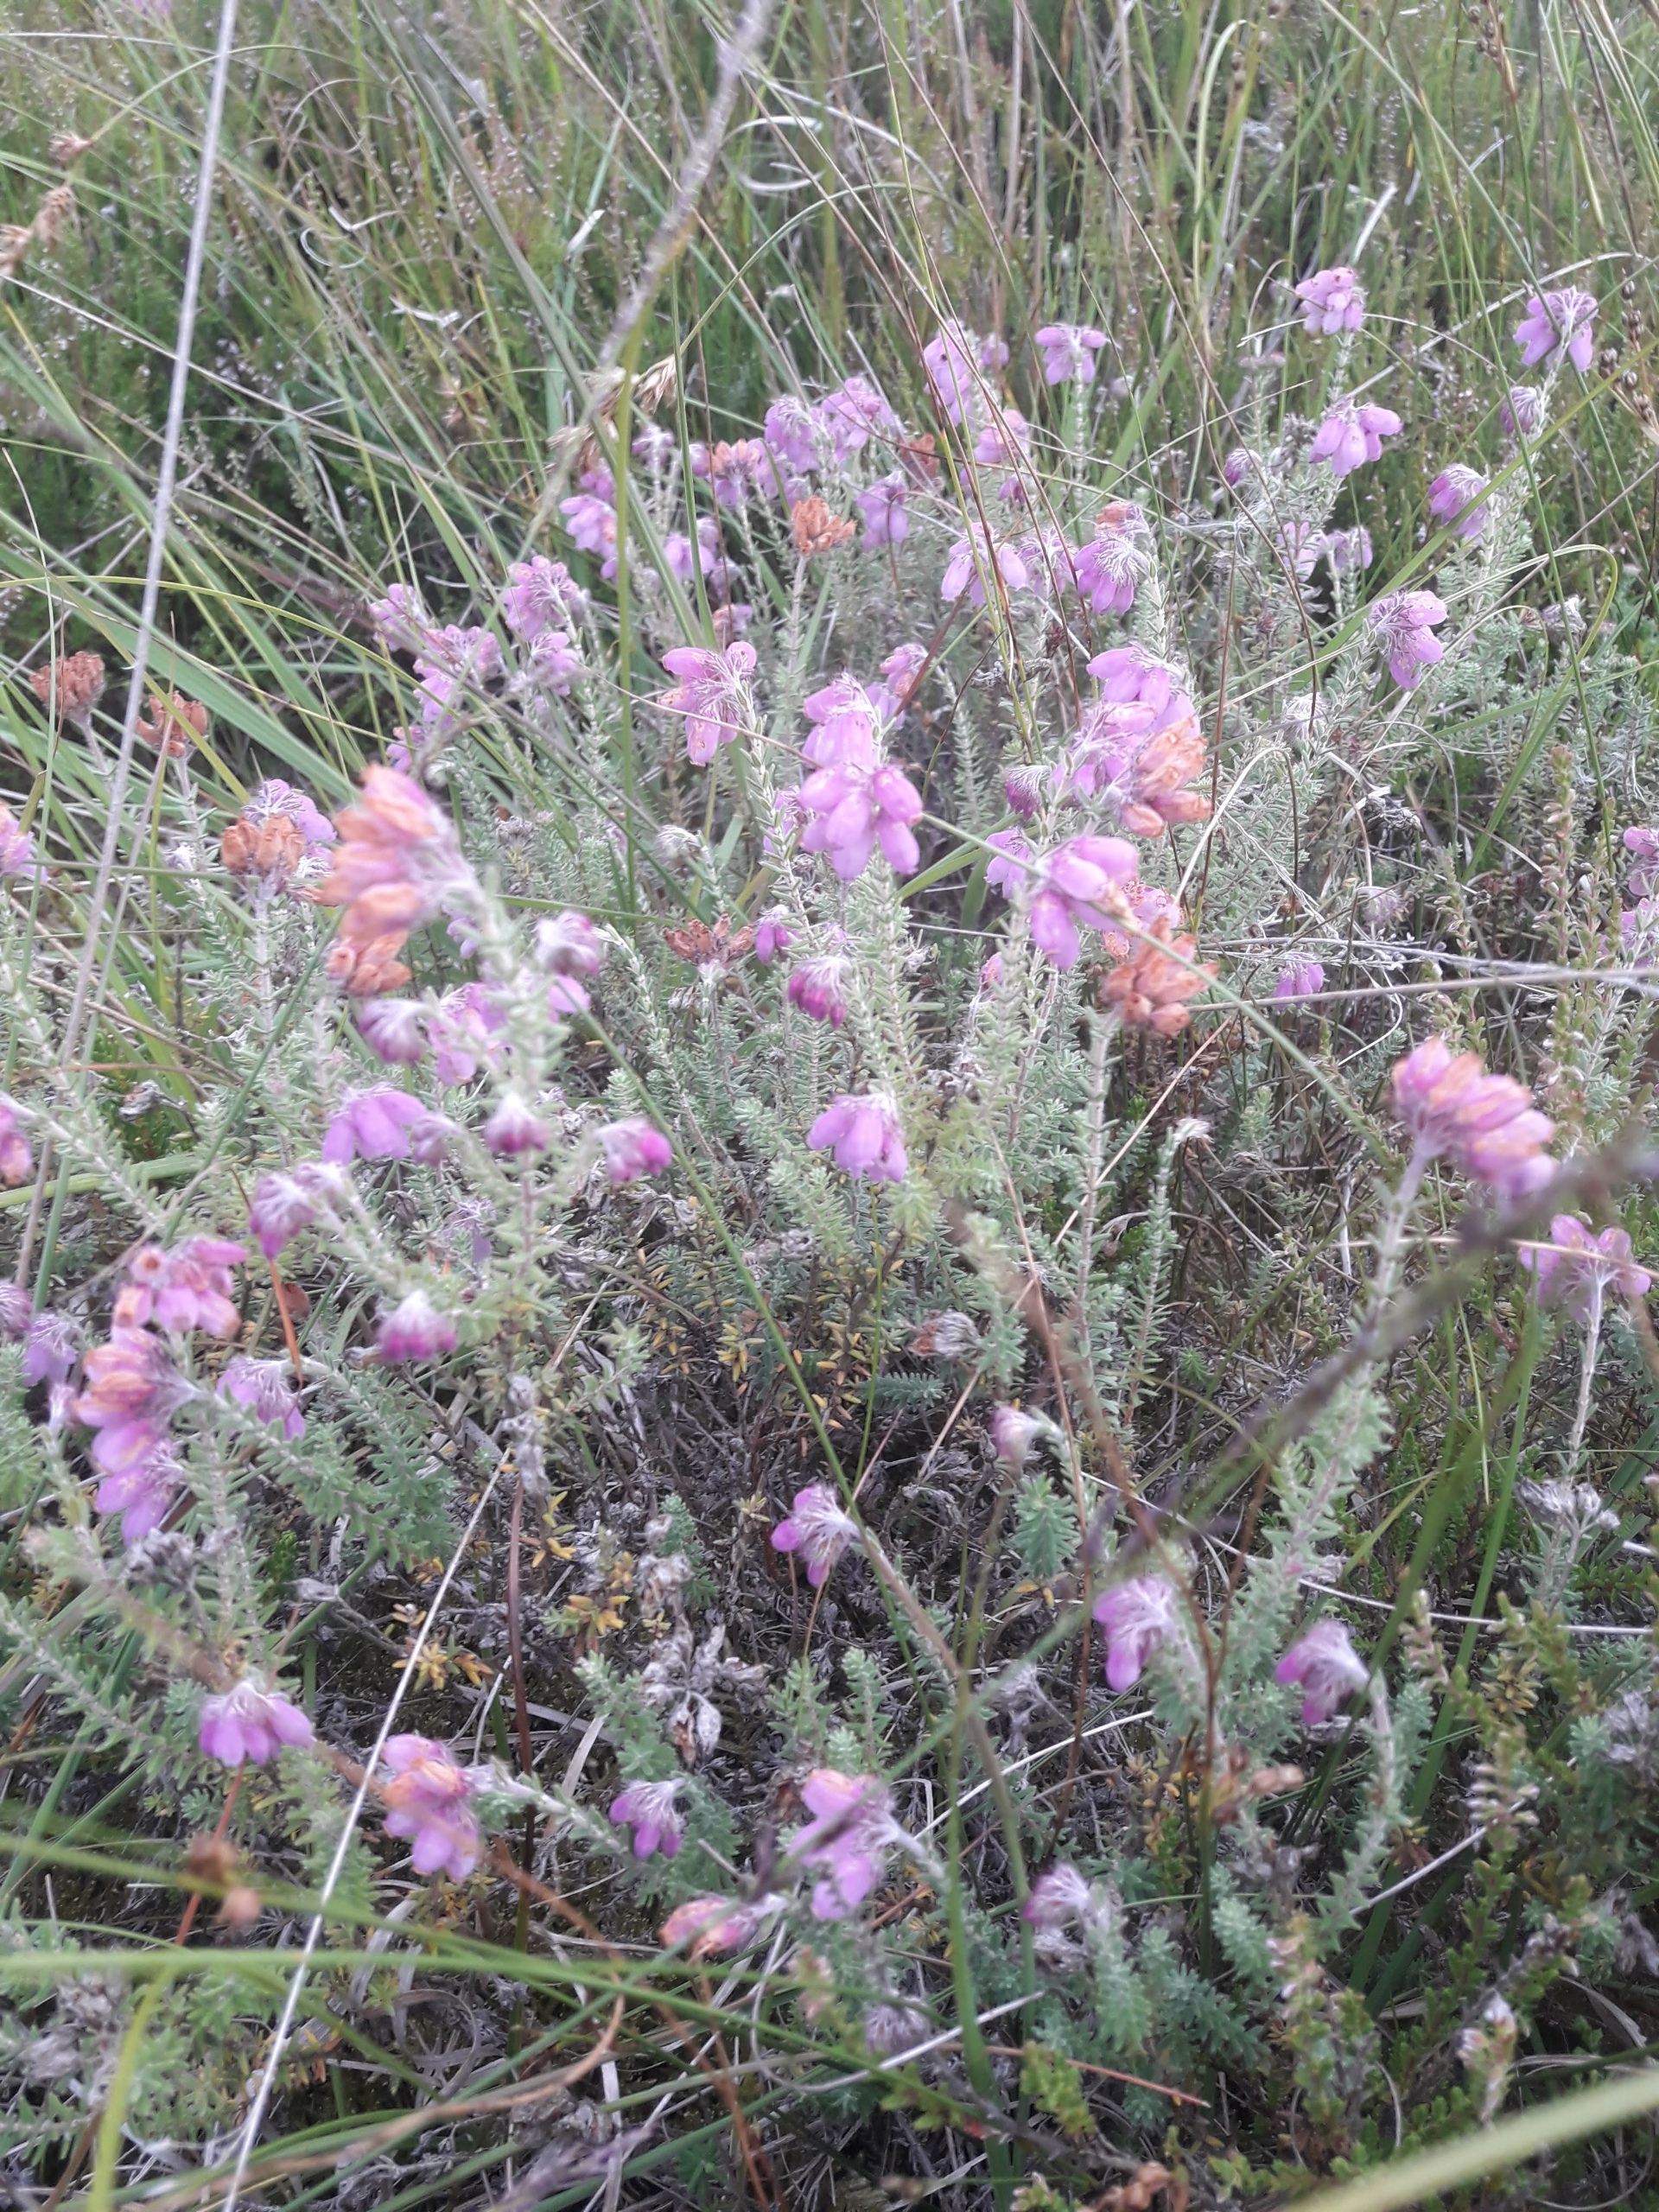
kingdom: Plantae
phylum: Tracheophyta
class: Magnoliopsida
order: Ericales
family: Ericaceae
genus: Erica
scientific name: Erica tetralix
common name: Klokkelyng
